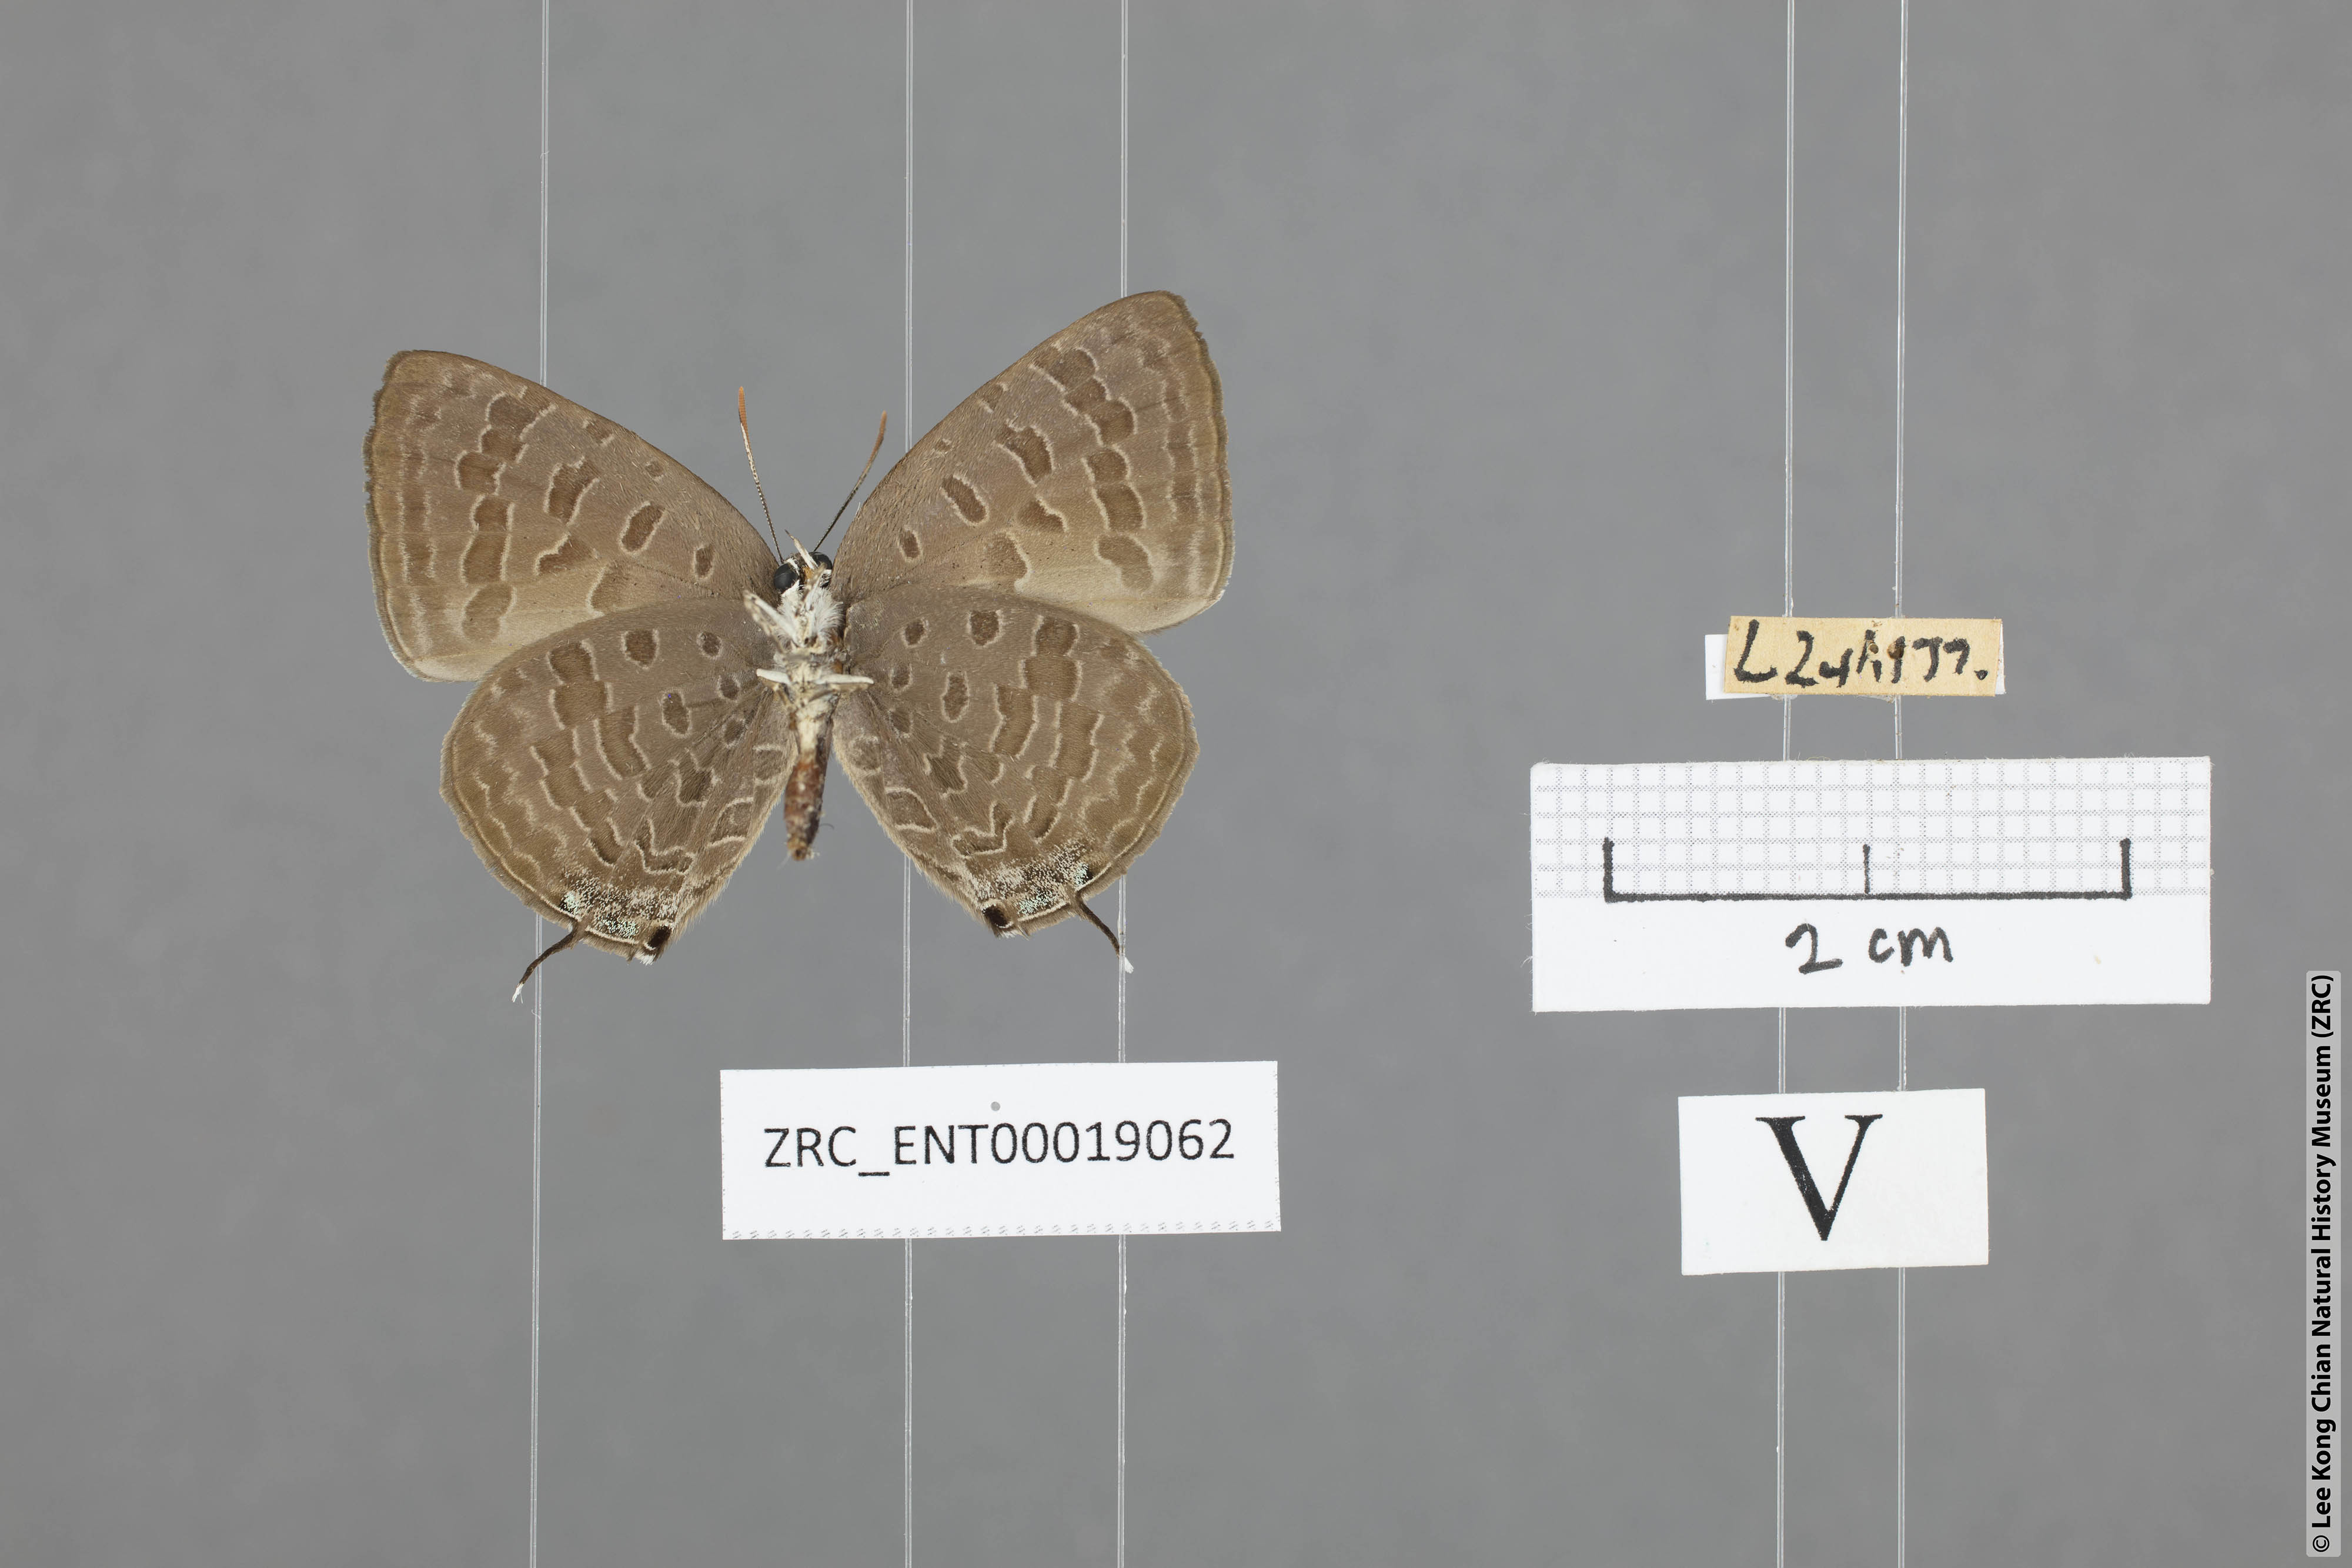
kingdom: Animalia
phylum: Arthropoda
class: Insecta
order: Lepidoptera
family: Lycaenidae
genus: Arhopala
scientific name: Arhopala aida
